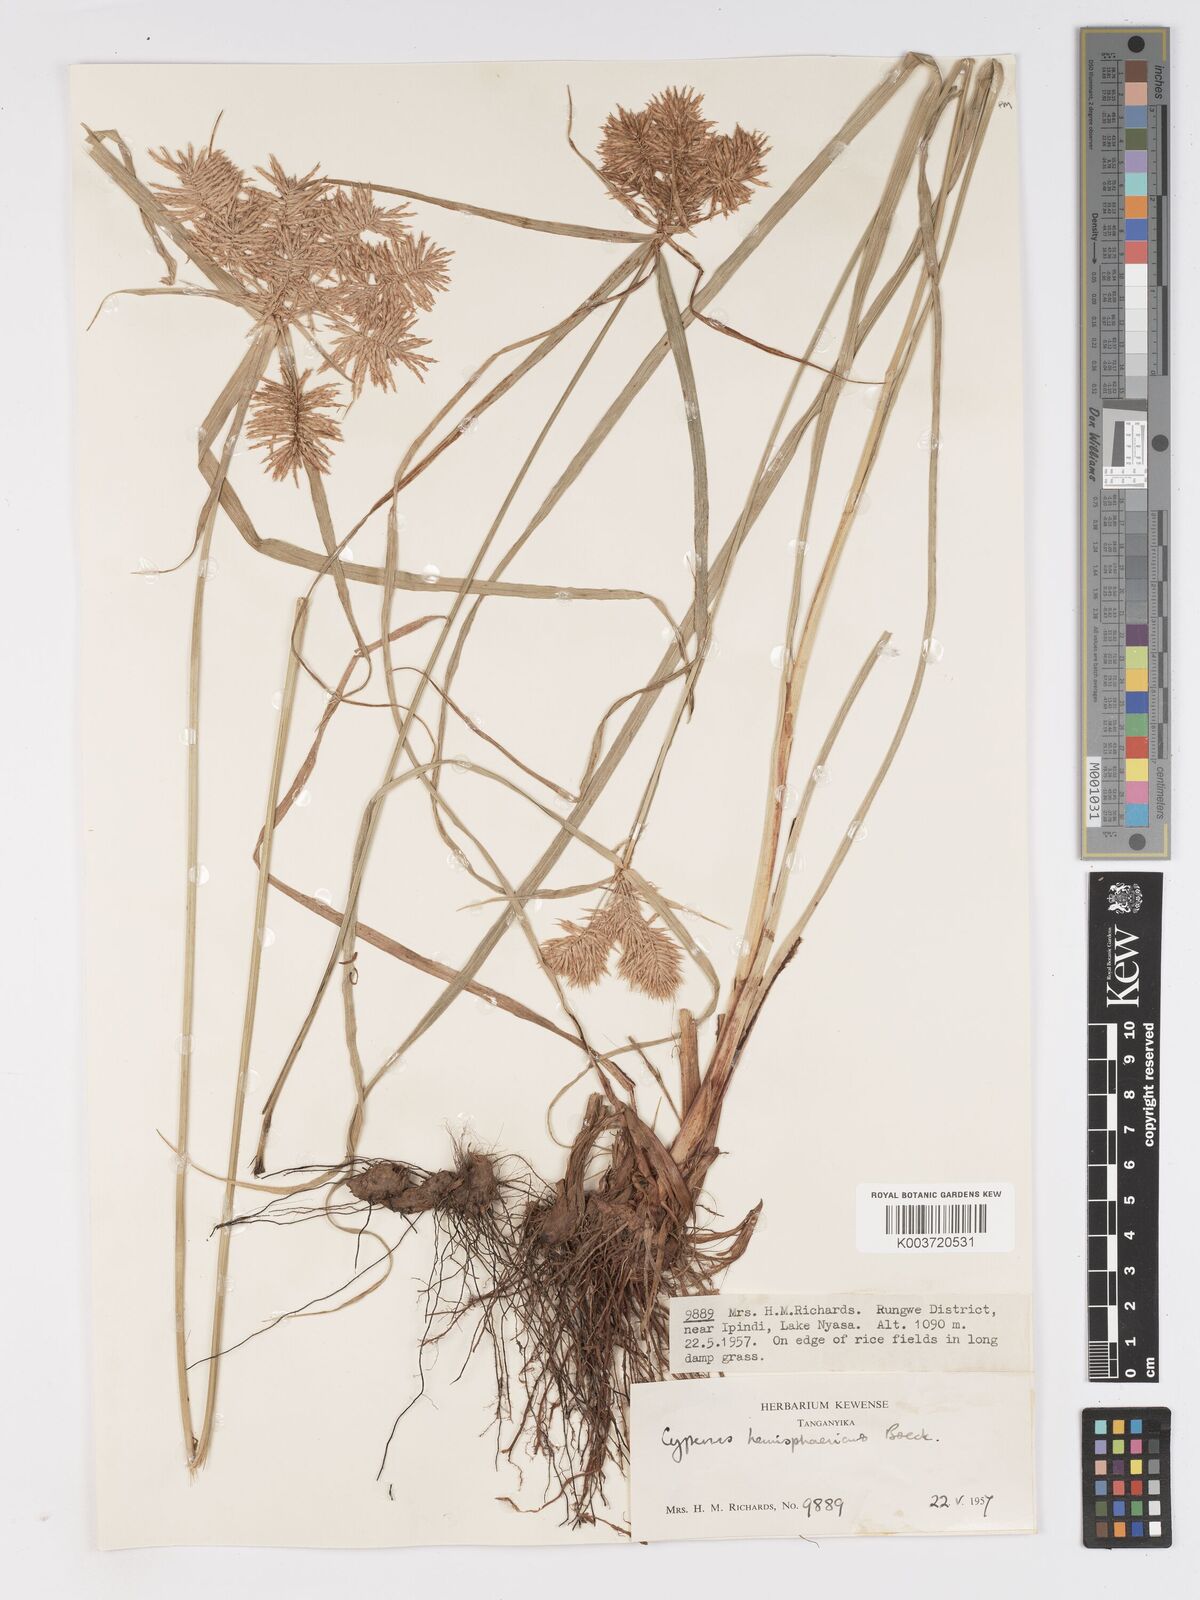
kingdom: Plantae
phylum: Tracheophyta
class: Liliopsida
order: Poales
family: Cyperaceae
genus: Cyperus
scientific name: Cyperus hemisphaericus
